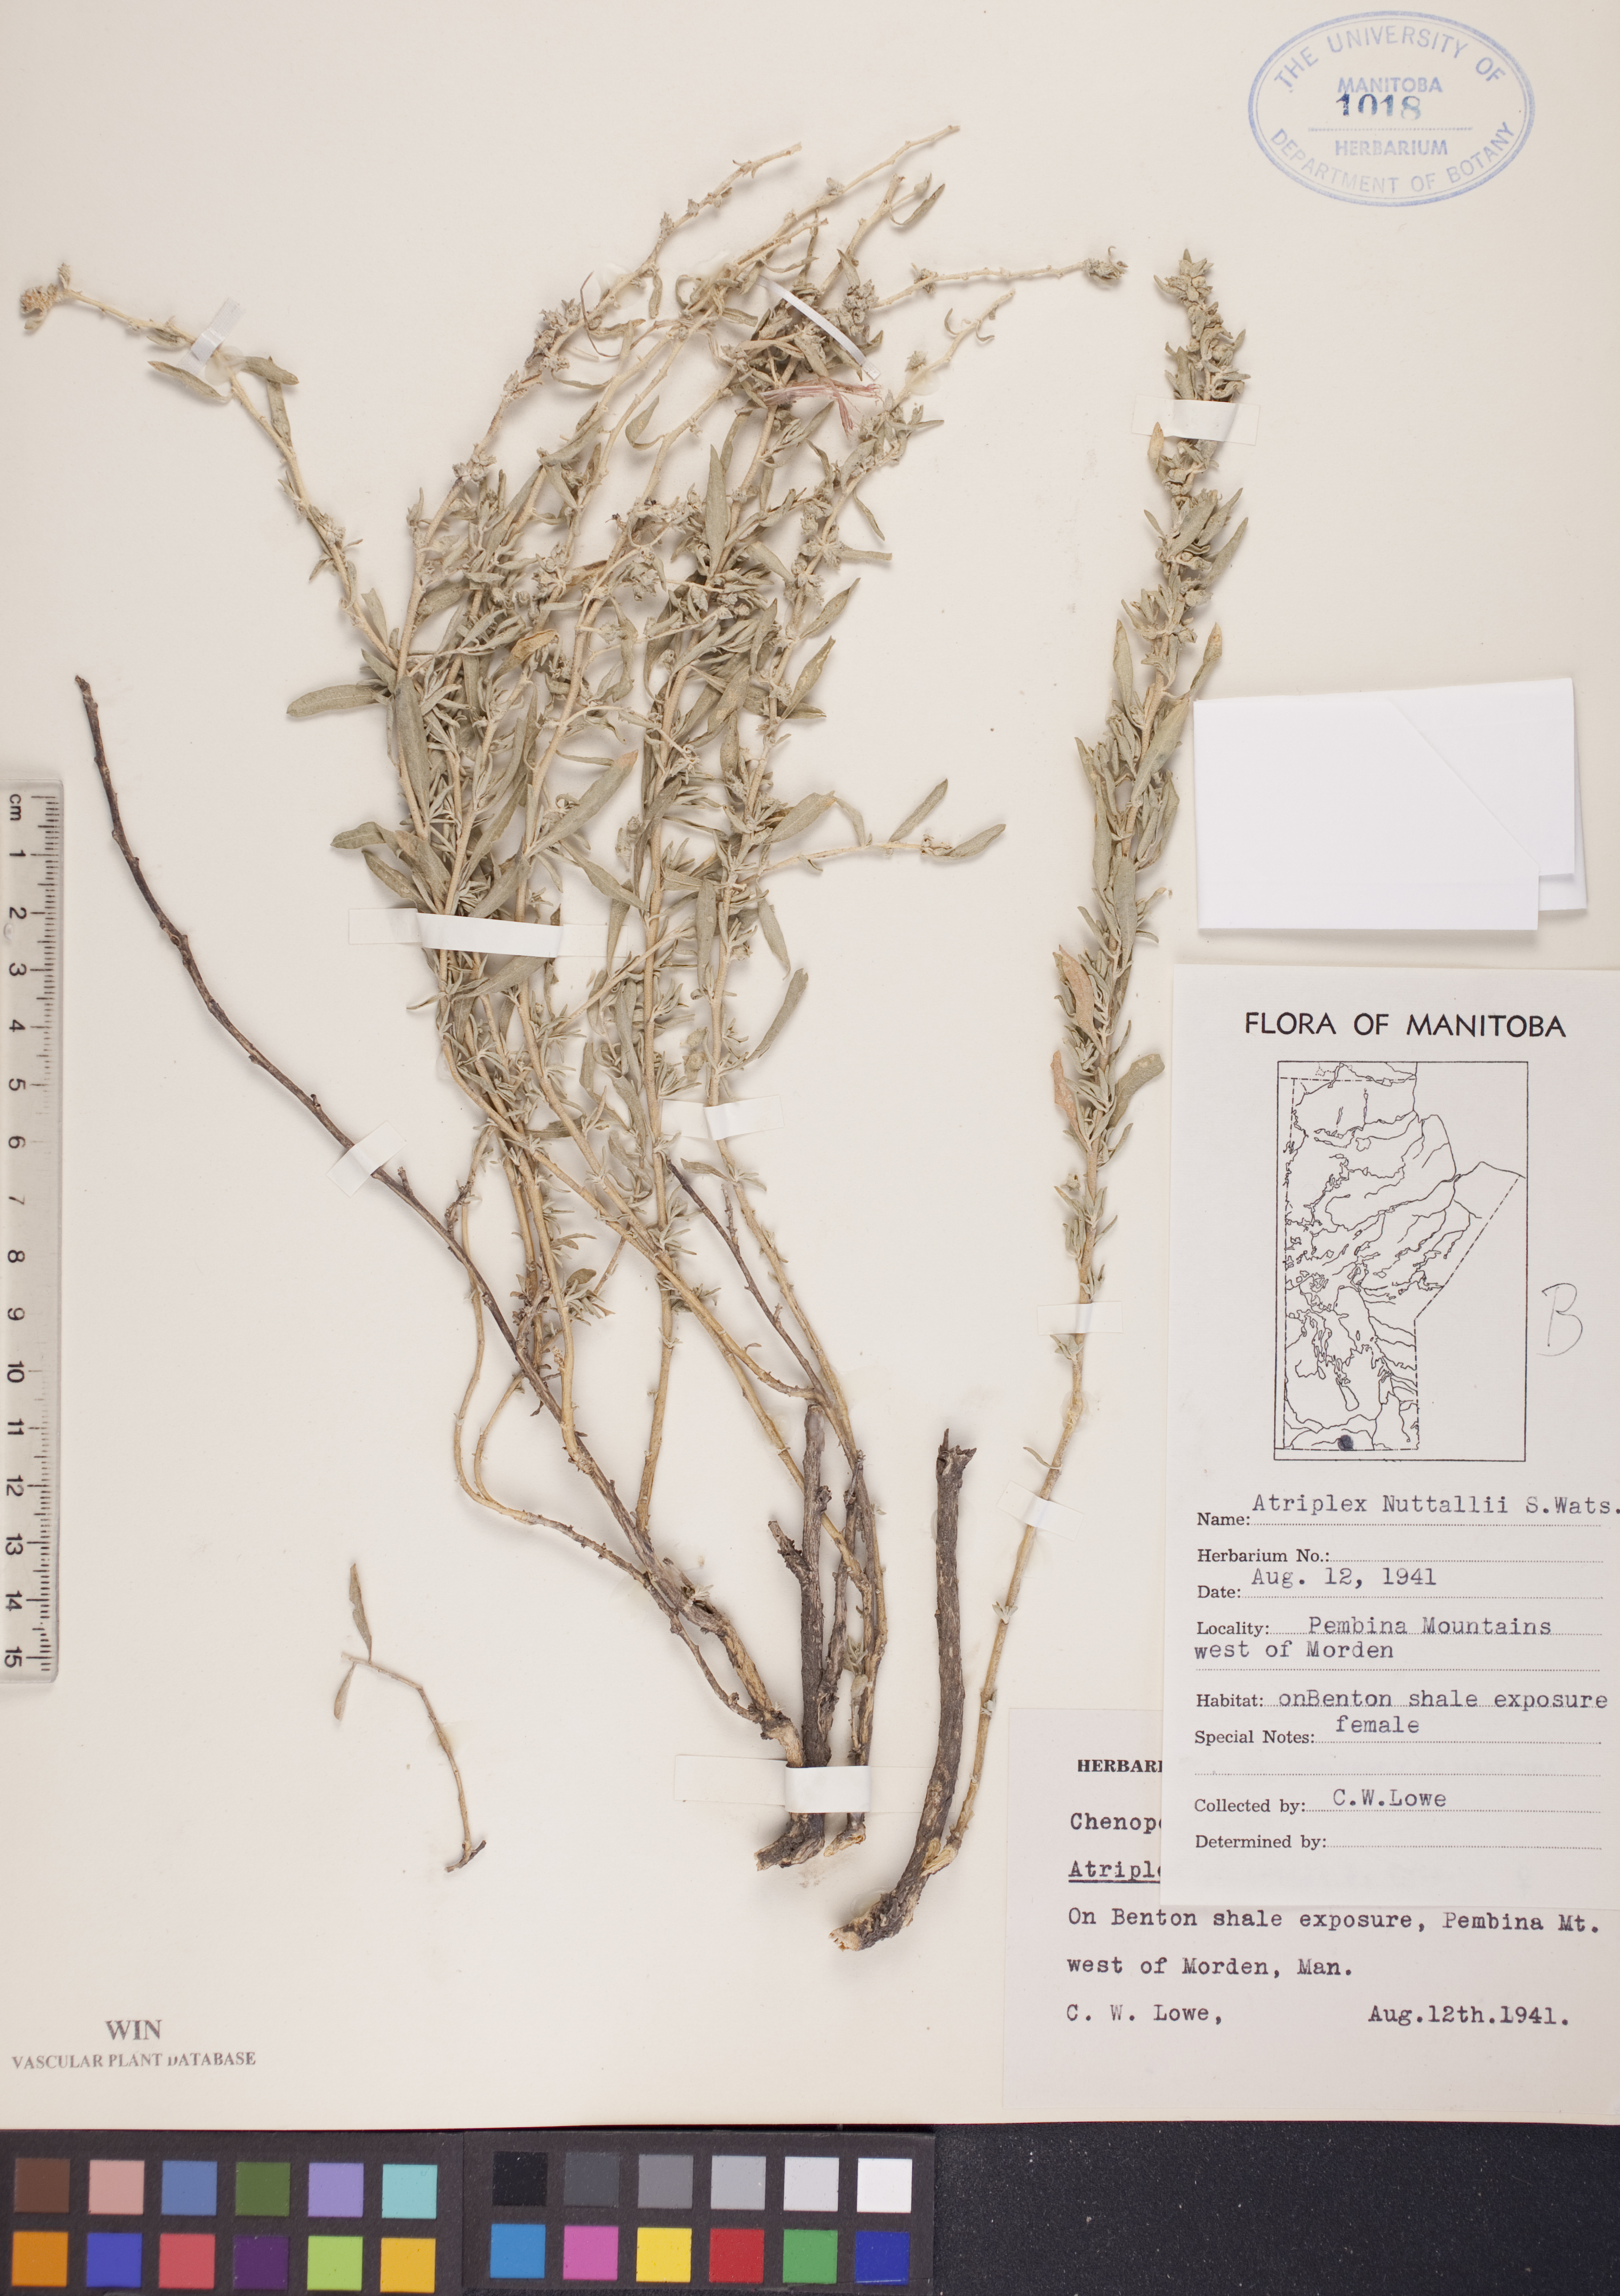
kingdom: Plantae
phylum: Tracheophyta
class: Magnoliopsida
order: Caryophyllales
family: Amaranthaceae
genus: Atriplex
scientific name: Atriplex canescens
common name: Four-wing saltbush
